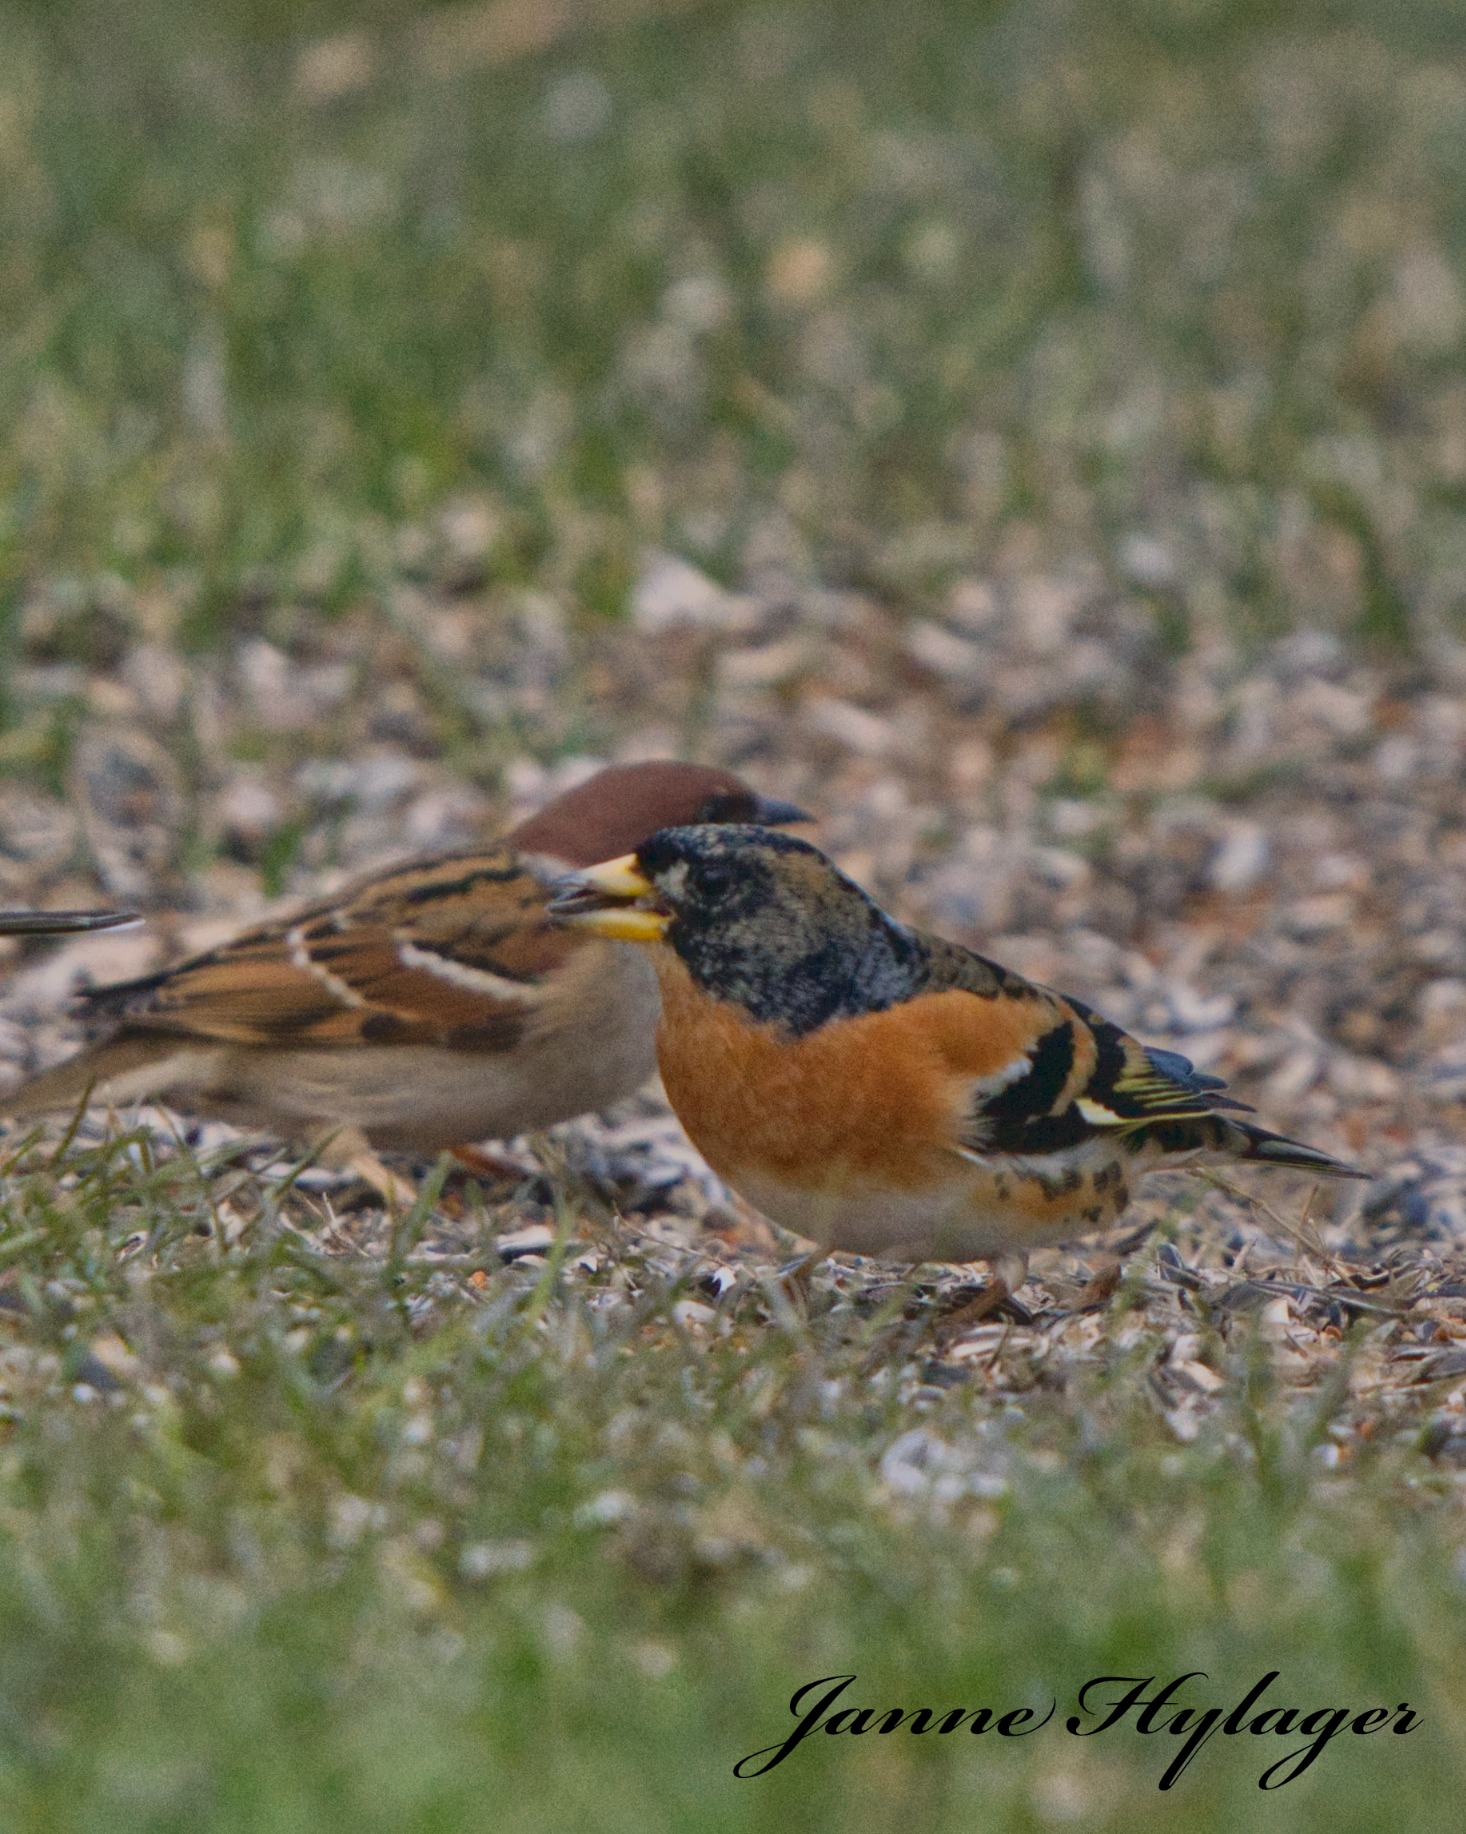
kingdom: Animalia
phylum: Chordata
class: Aves
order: Passeriformes
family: Fringillidae
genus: Fringilla
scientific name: Fringilla montifringilla
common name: Kvækerfinke
